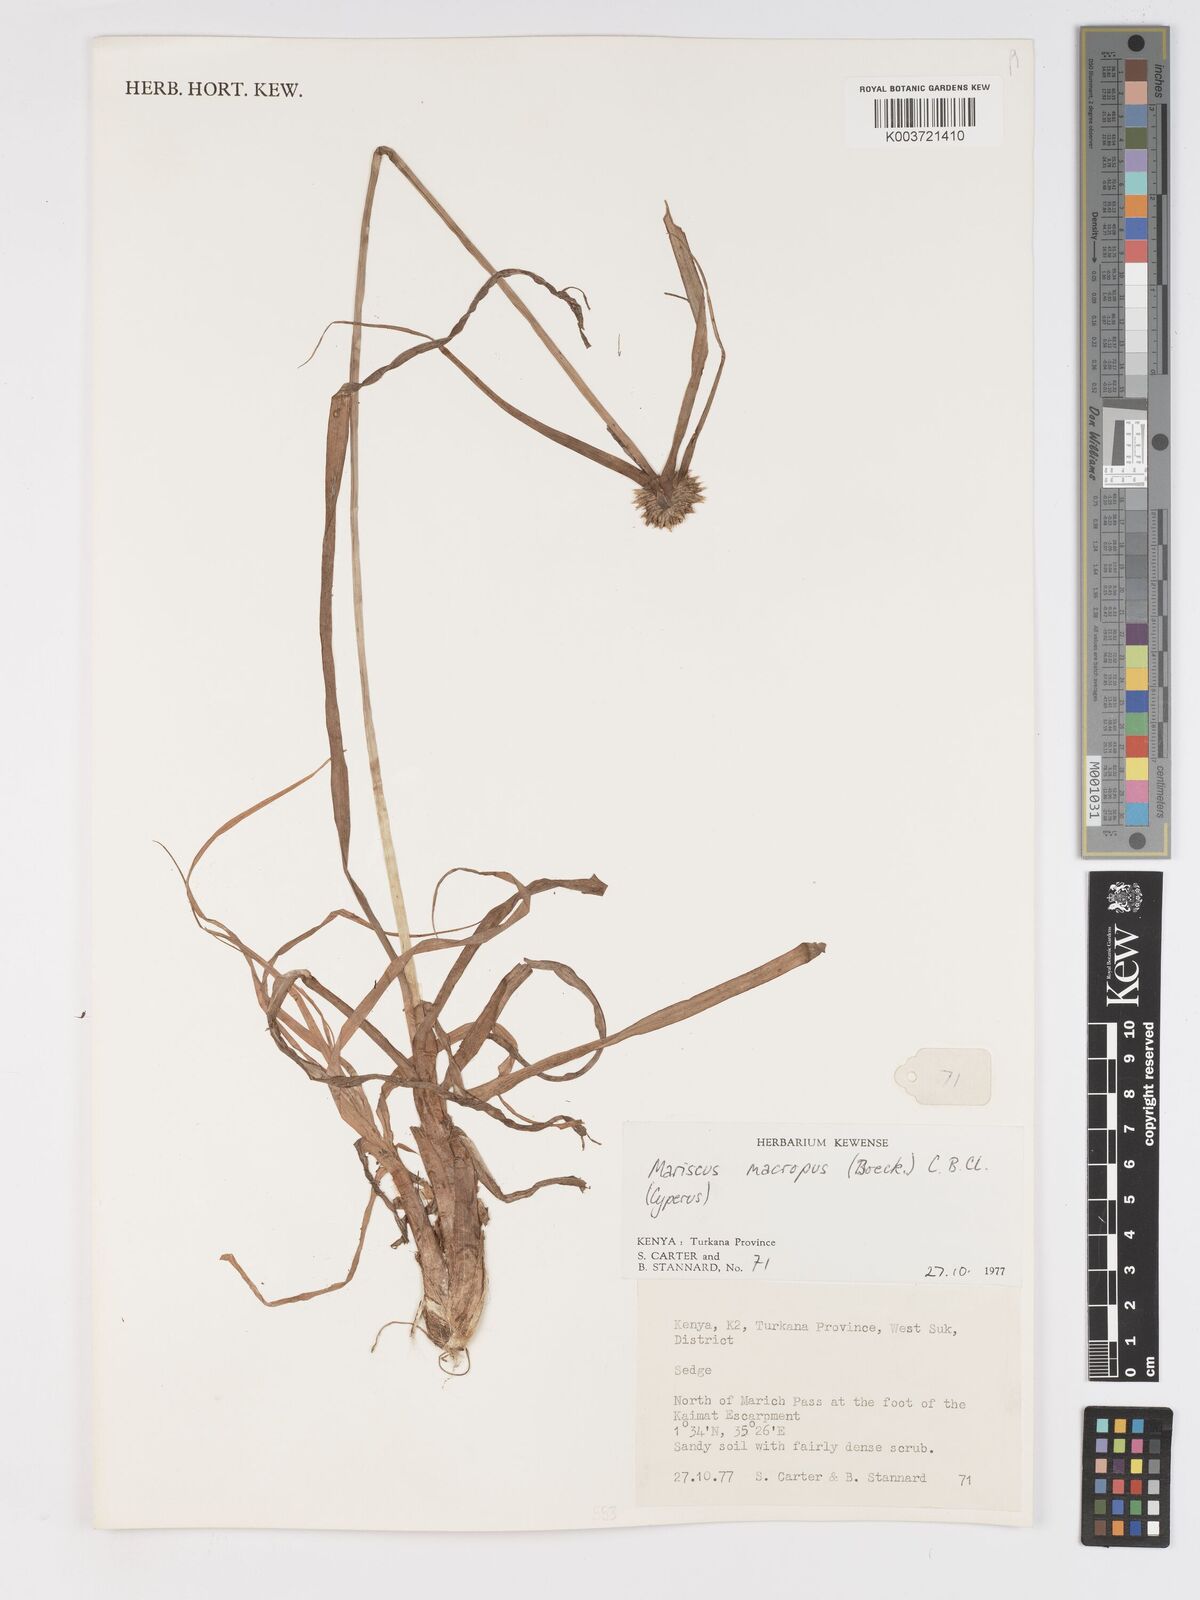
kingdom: Plantae
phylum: Tracheophyta
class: Liliopsida
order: Poales
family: Cyperaceae
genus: Cyperus
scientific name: Cyperus mollipes
